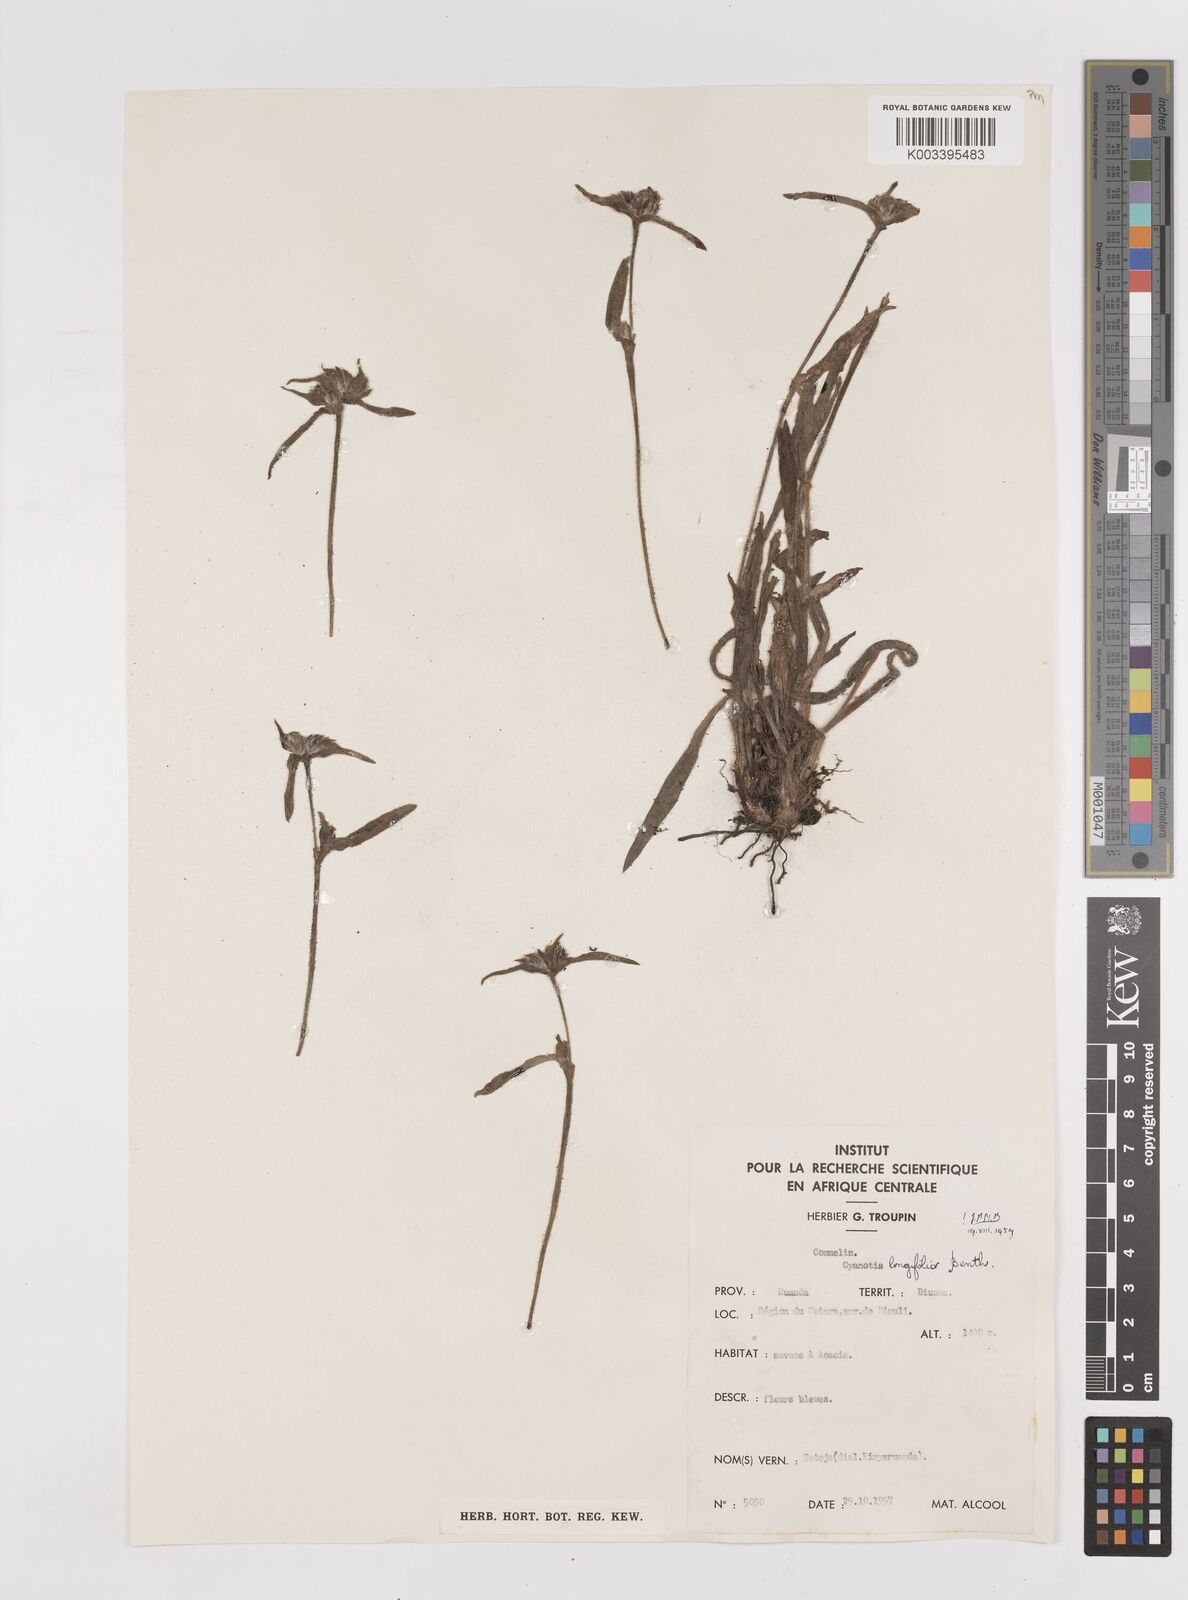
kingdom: Plantae
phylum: Tracheophyta
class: Liliopsida
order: Commelinales
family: Commelinaceae
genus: Cyanotis
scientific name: Cyanotis longifolia
